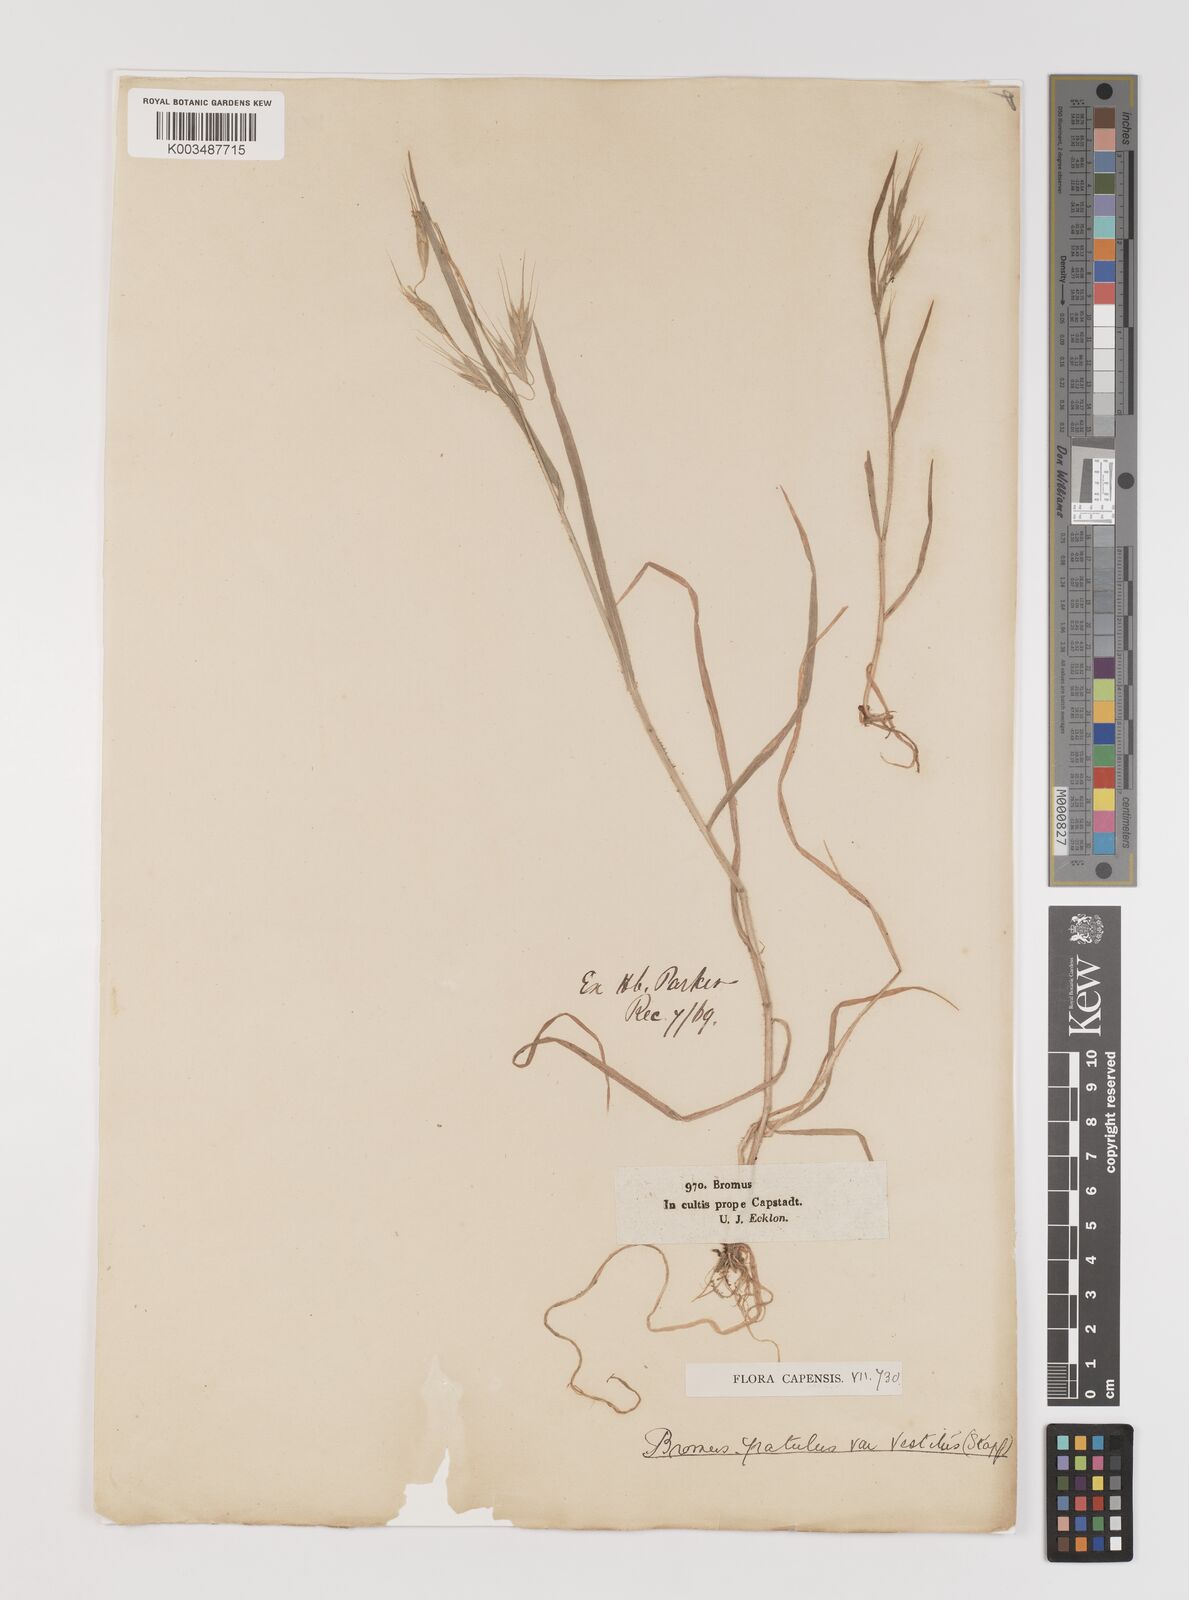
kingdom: Plantae
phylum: Tracheophyta
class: Liliopsida
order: Poales
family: Poaceae
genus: Bromus
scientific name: Bromus pectinatus
